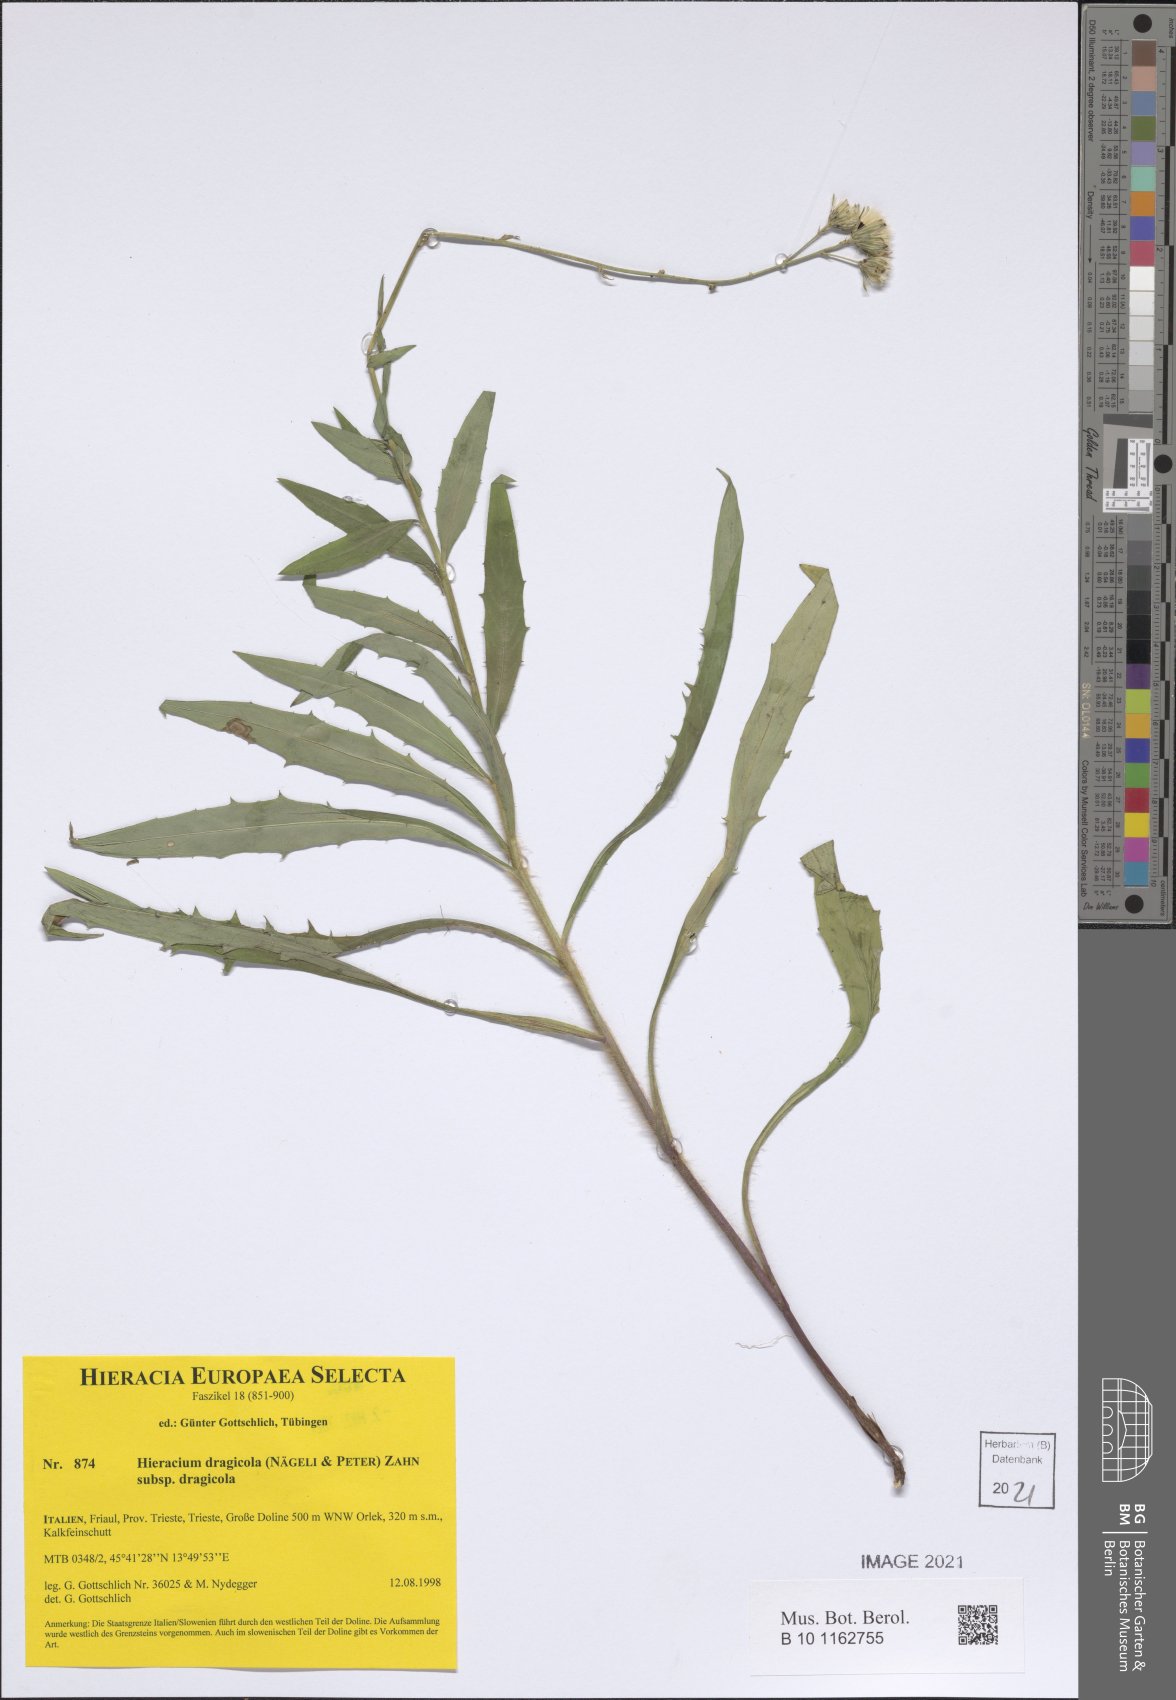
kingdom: Plantae
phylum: Tracheophyta
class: Magnoliopsida
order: Asterales
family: Asteraceae
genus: Hieracium
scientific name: Hieracium dragicola
